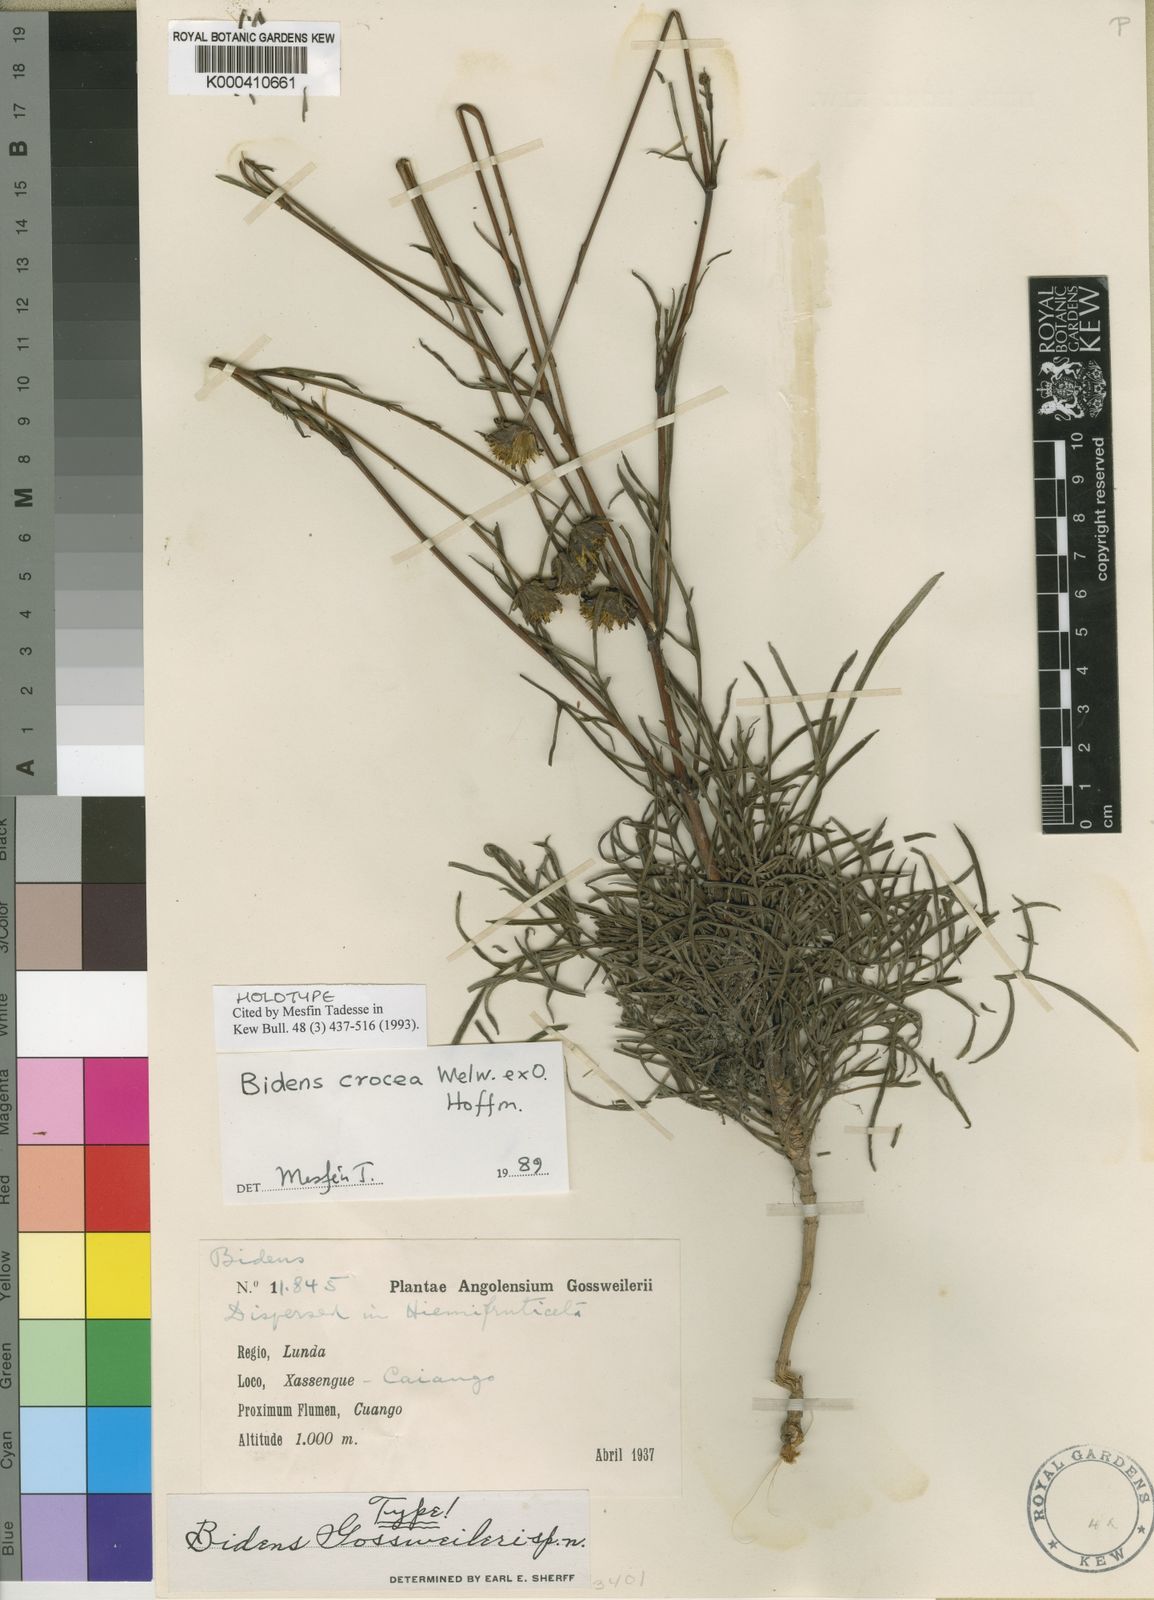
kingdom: Plantae
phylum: Tracheophyta
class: Magnoliopsida
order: Asterales
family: Asteraceae
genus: Bidens
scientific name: Bidens crocea
